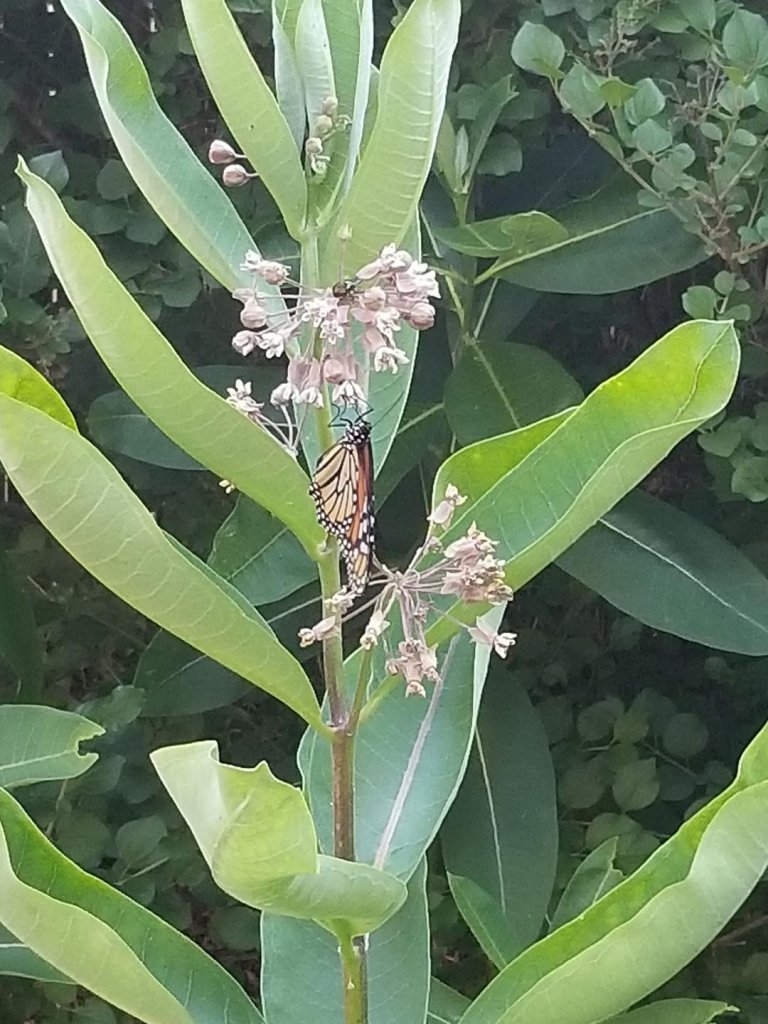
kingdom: Animalia
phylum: Arthropoda
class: Insecta
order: Lepidoptera
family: Nymphalidae
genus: Danaus
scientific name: Danaus plexippus
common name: Monarch
